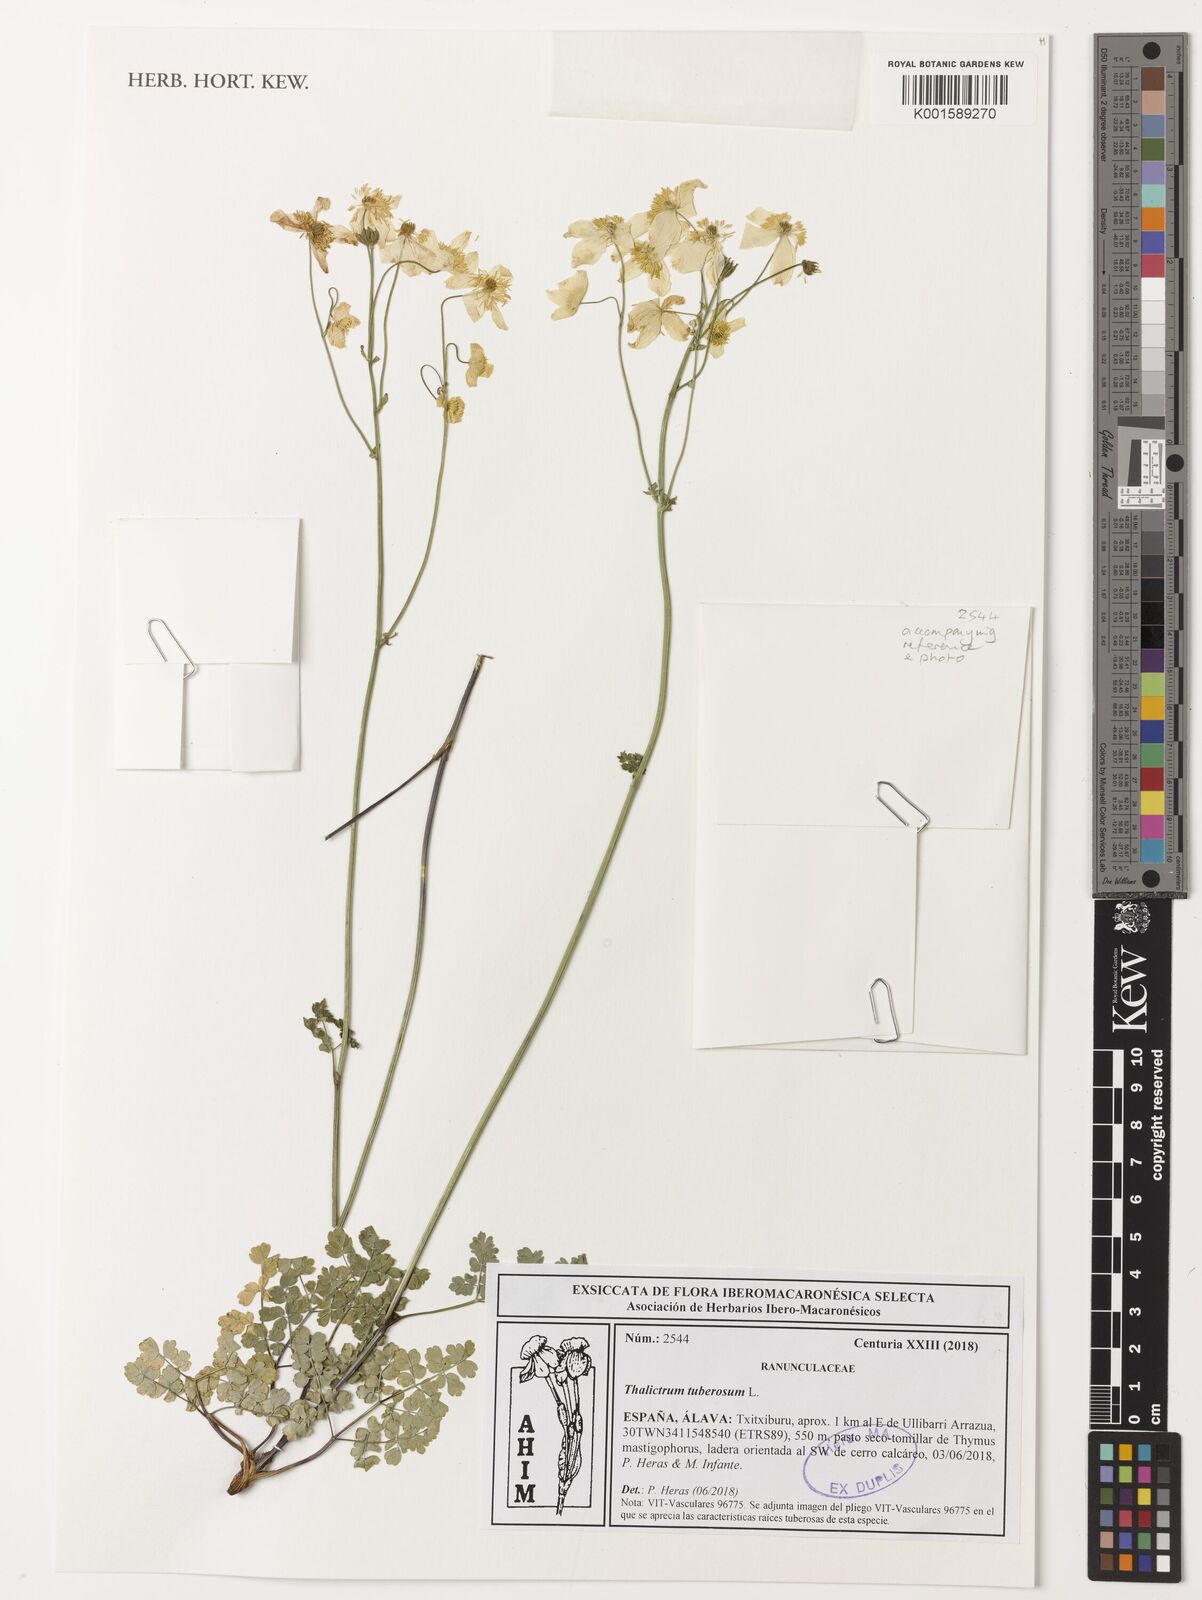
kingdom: Plantae
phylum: Tracheophyta
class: Magnoliopsida
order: Ranunculales
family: Ranunculaceae
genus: Thalictrum
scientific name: Thalictrum tuberosum
